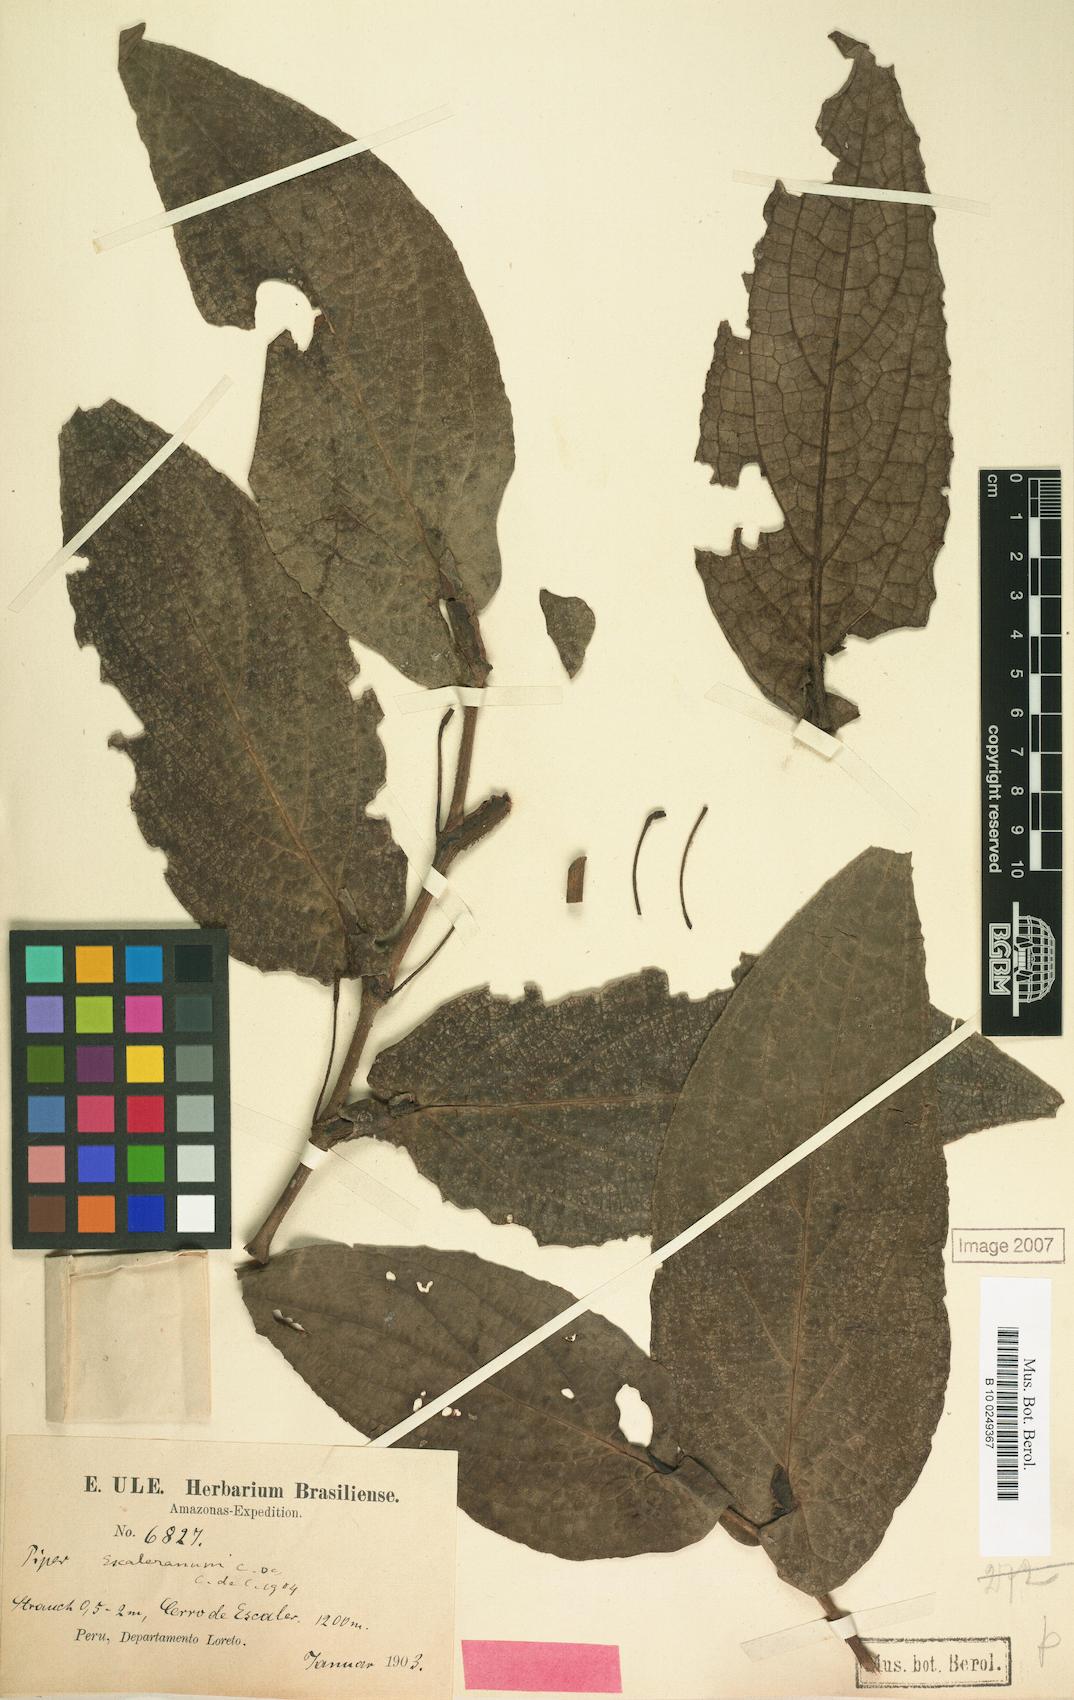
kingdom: Plantae
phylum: Tracheophyta
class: Magnoliopsida
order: Piperales
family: Piperaceae
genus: Piper
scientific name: Piper escaleranum
